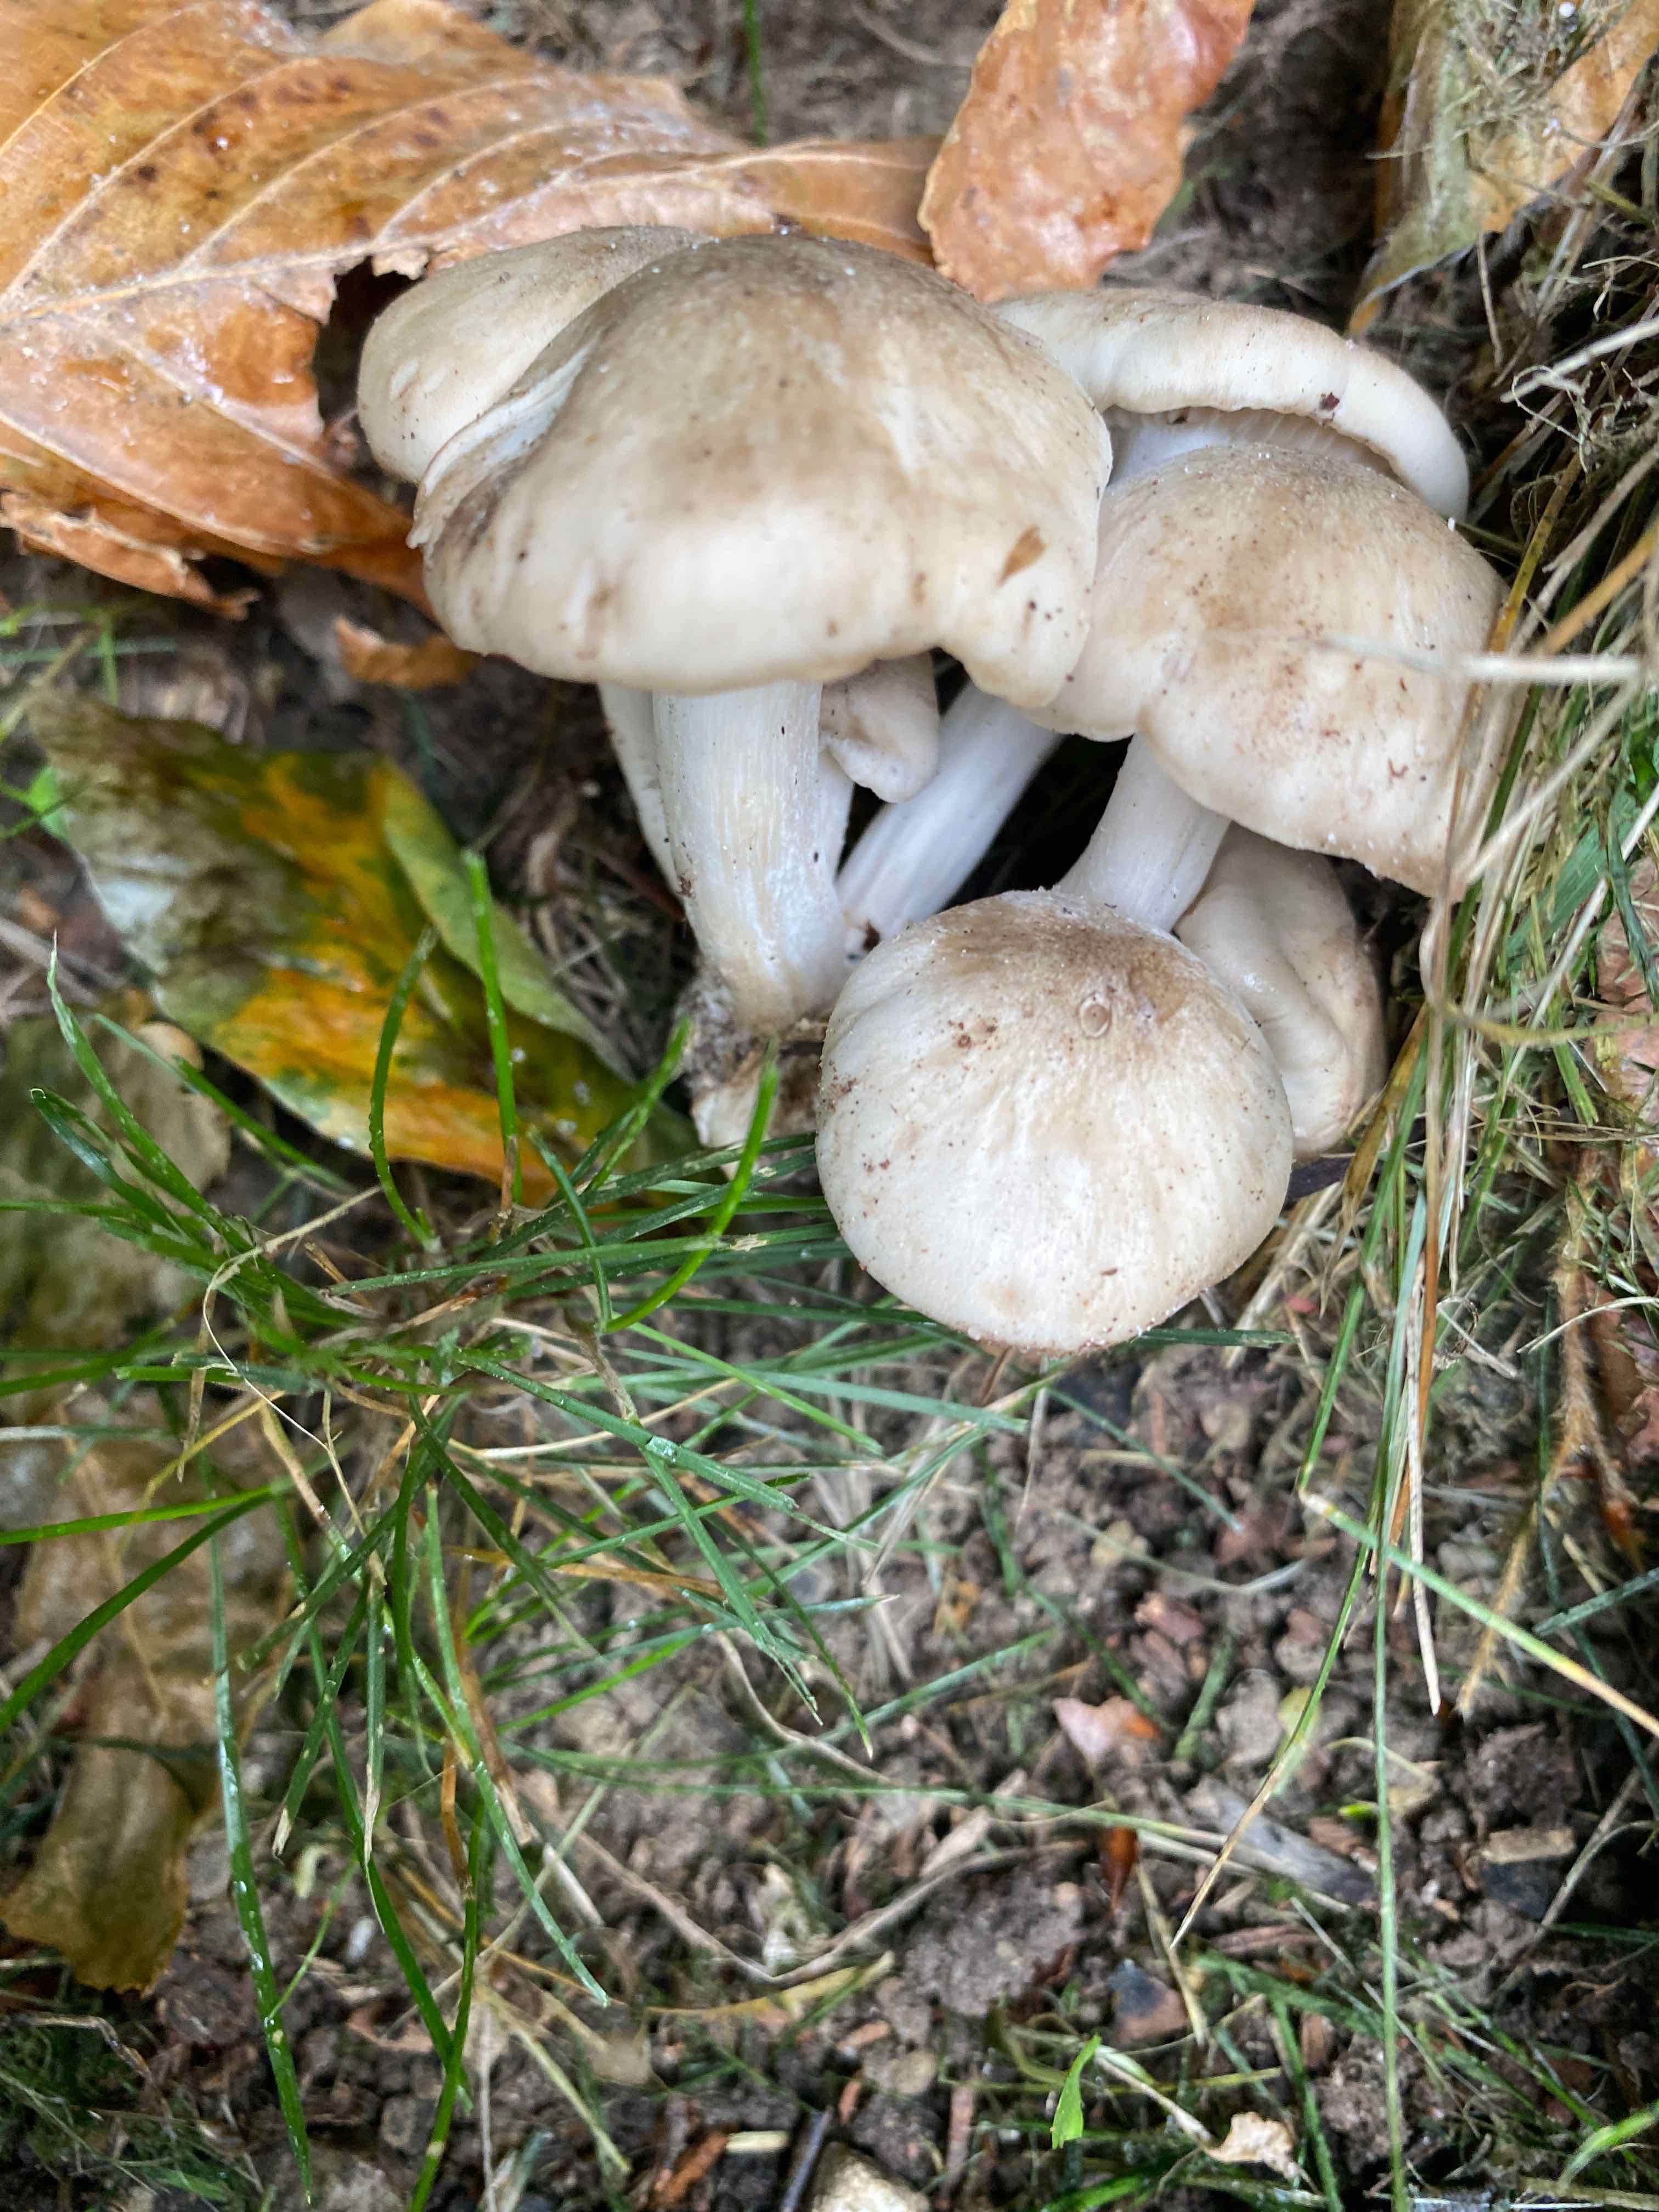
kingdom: Fungi
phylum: Basidiomycota
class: Agaricomycetes
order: Agaricales
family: Lyophyllaceae
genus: Lyophyllum
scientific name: Lyophyllum
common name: gråblad
